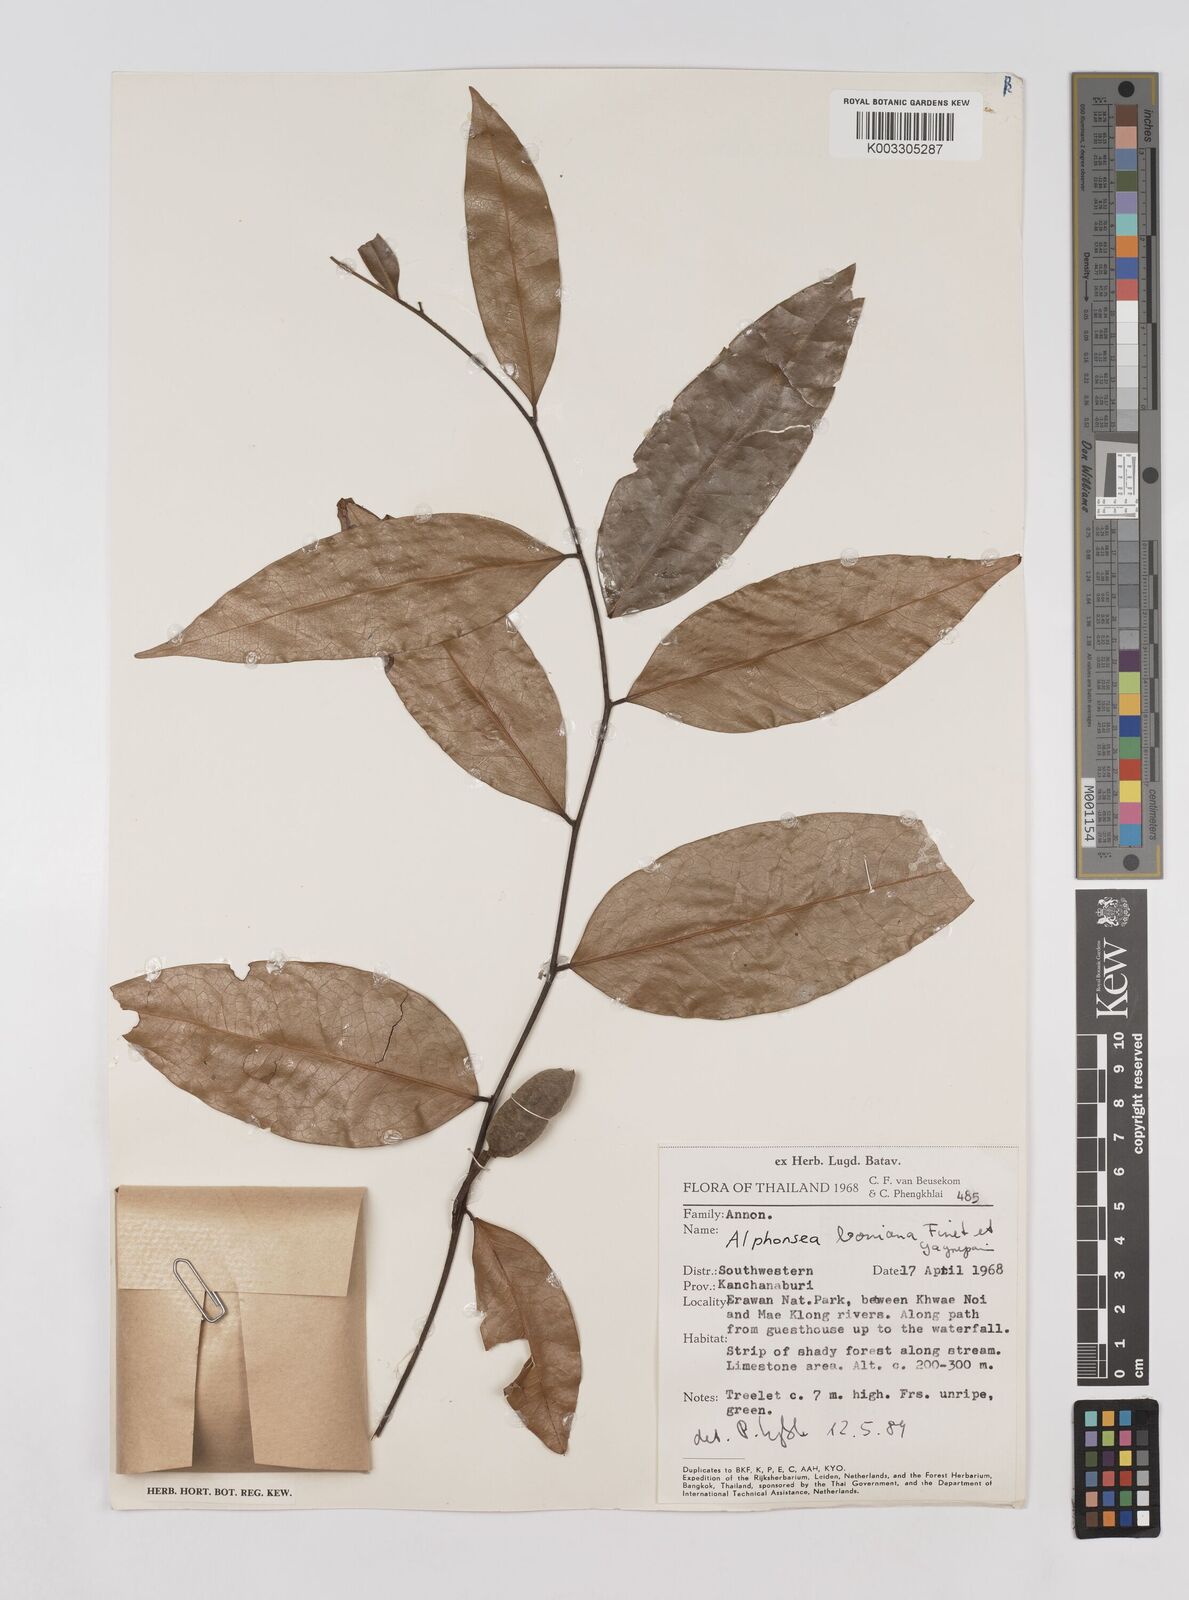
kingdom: Plantae
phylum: Tracheophyta
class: Magnoliopsida
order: Magnoliales
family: Annonaceae
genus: Alphonsea
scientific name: Alphonsea boniana
